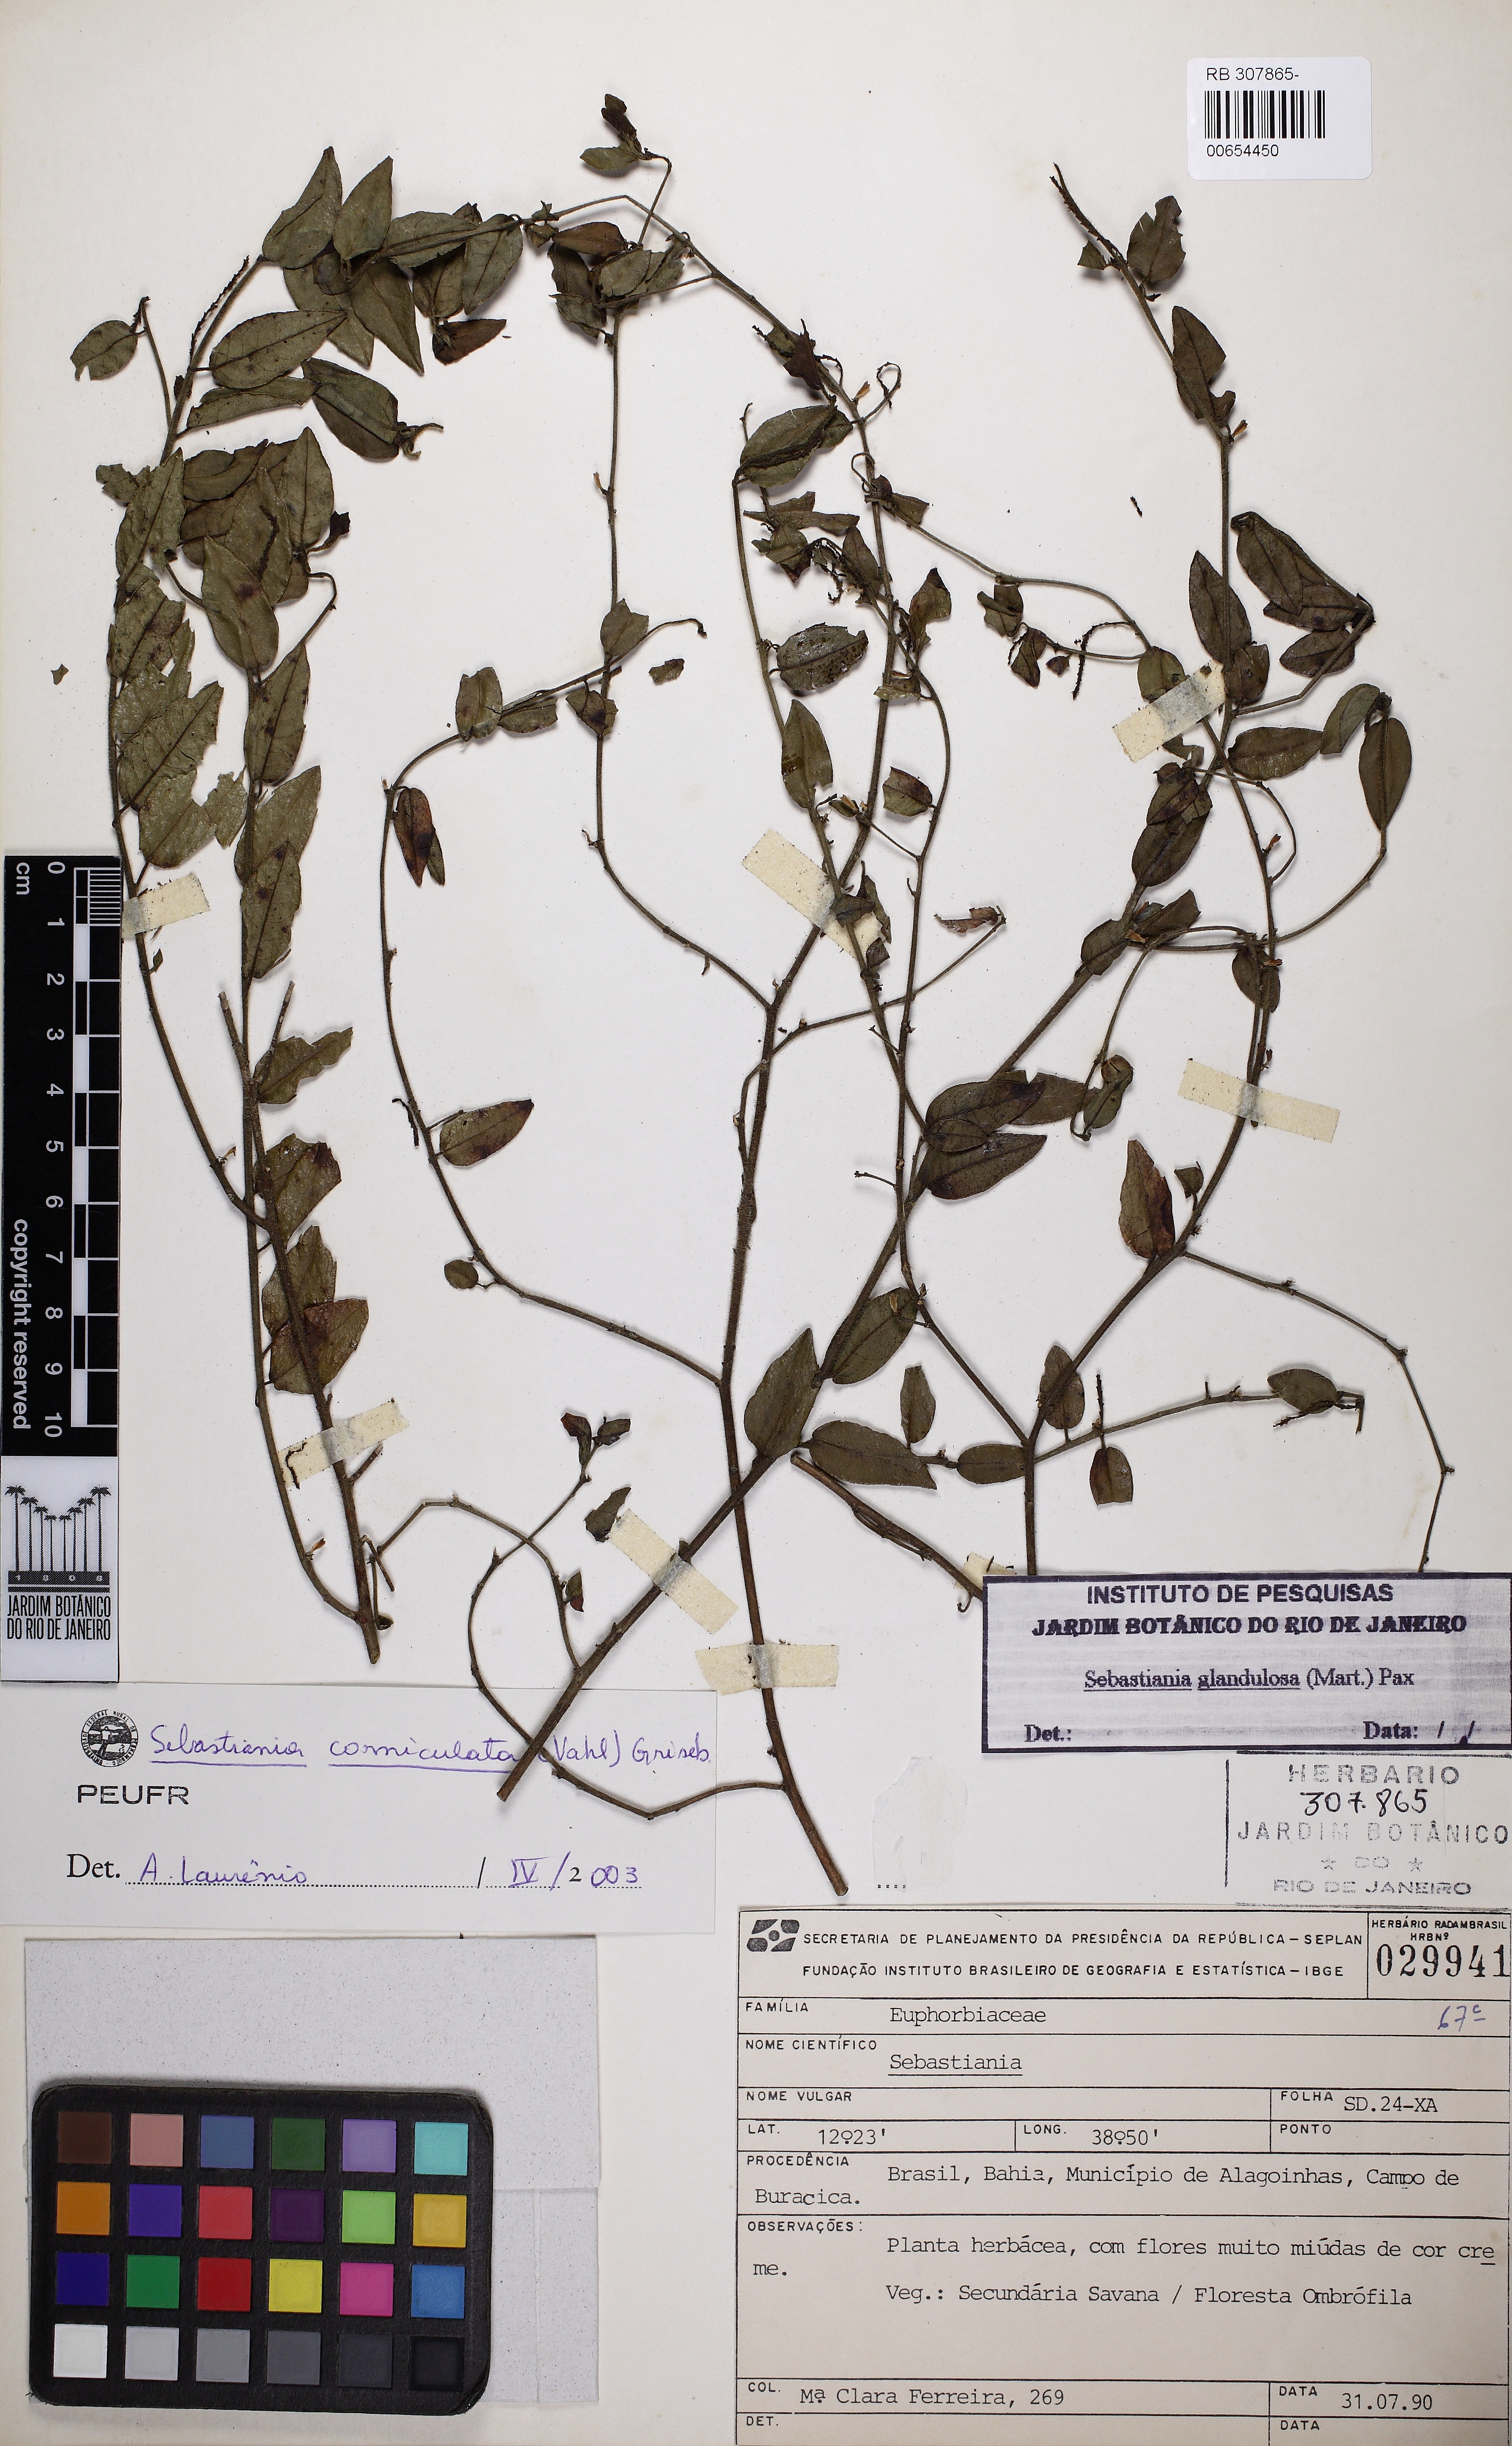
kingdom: Plantae
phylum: Tracheophyta
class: Magnoliopsida
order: Malpighiales
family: Euphorbiaceae
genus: Microstachys
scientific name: Microstachys corniculata
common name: Hato tejas
